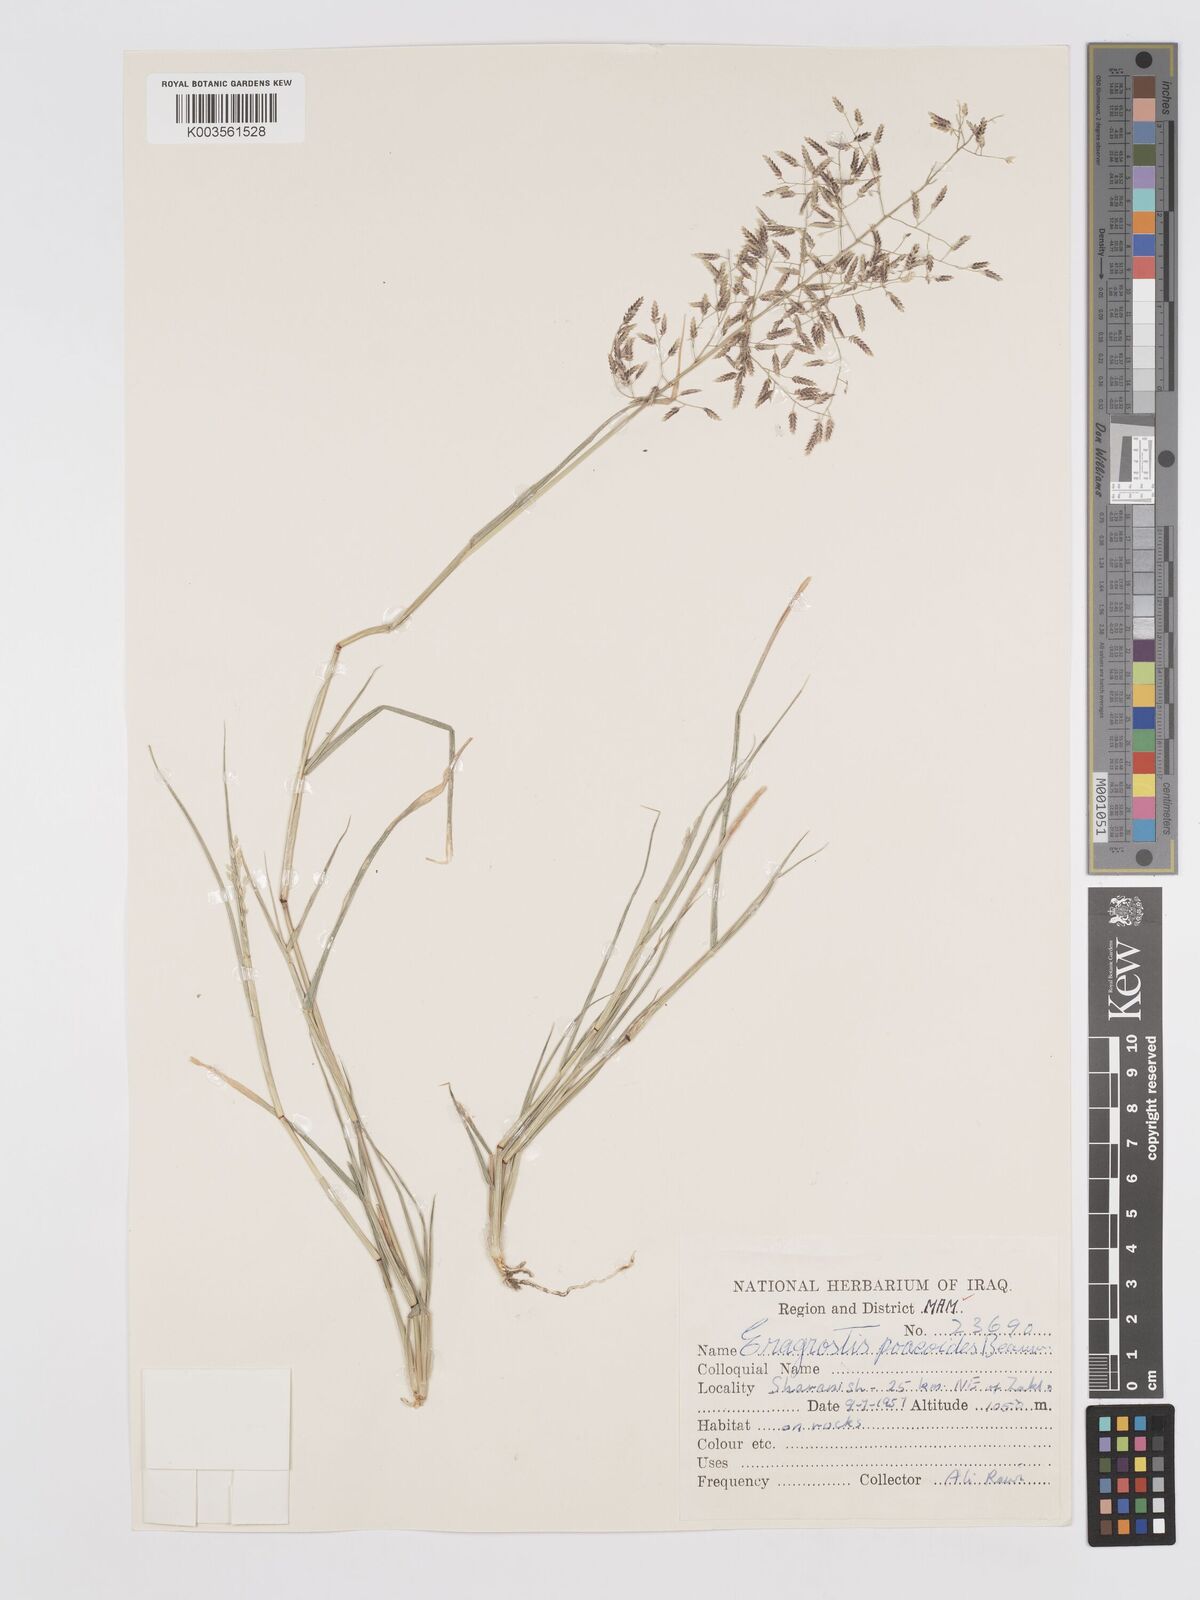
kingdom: Plantae
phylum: Tracheophyta
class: Liliopsida
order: Poales
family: Poaceae
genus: Eragrostis
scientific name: Eragrostis minor
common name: Small love-grass
